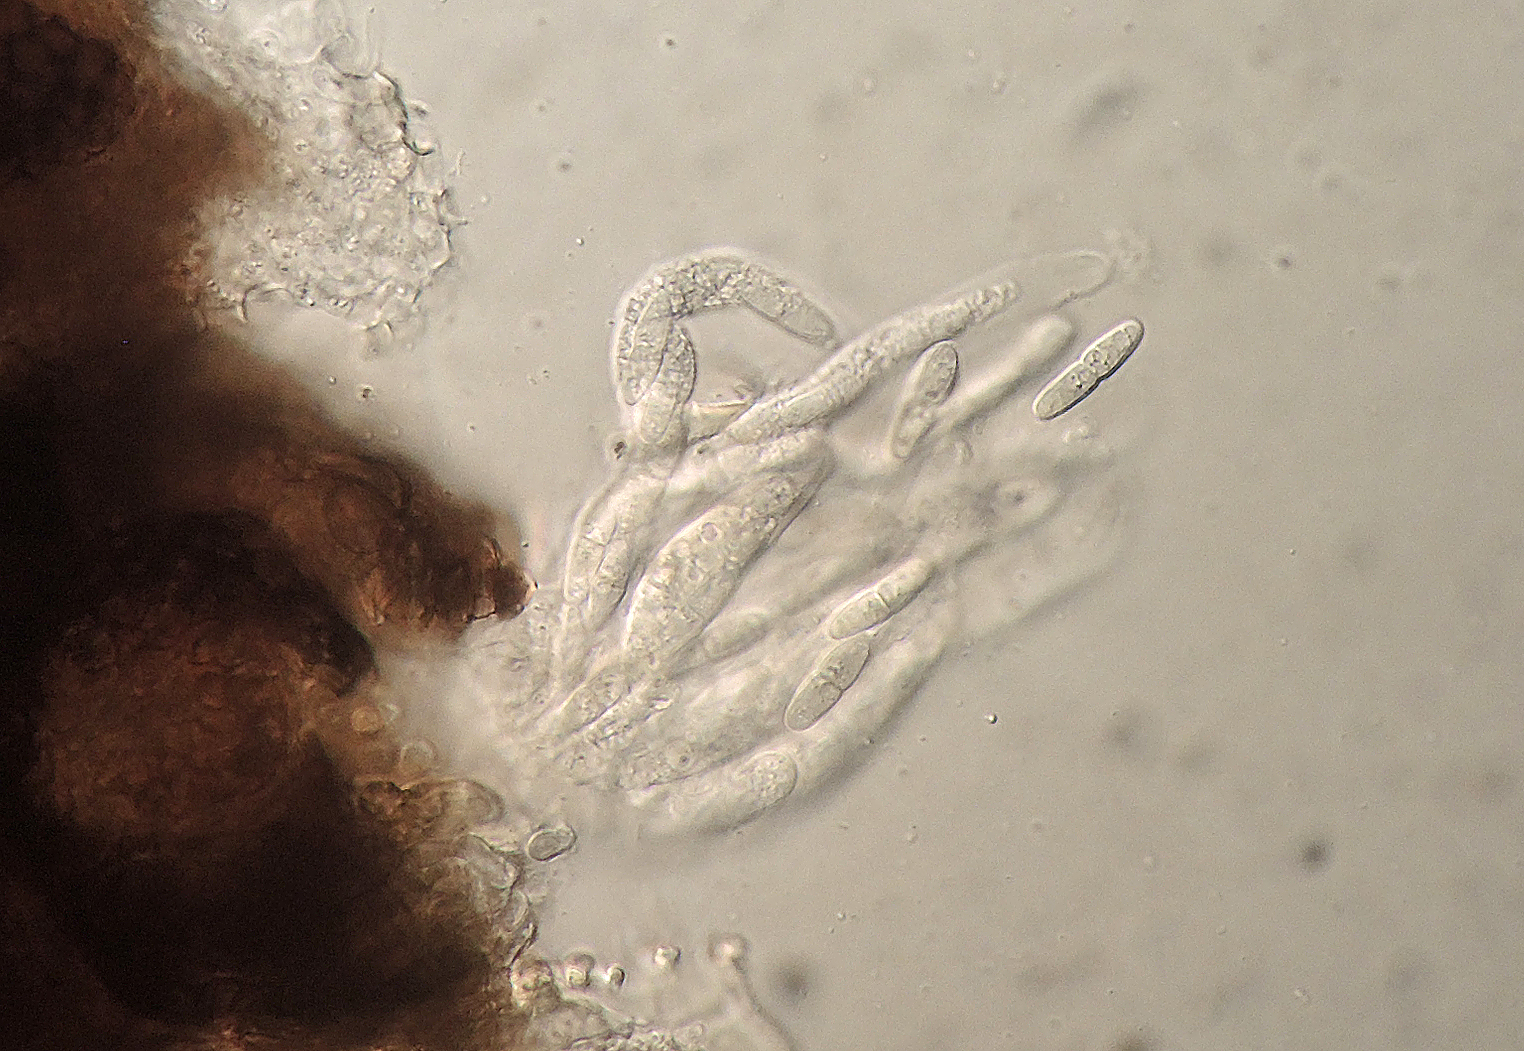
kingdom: Fungi
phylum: Ascomycota
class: Dothideomycetes
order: Mycosphaerellales
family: Mycosphaerellaceae
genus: Mycosphaerella
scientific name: Mycosphaerella perexigua
